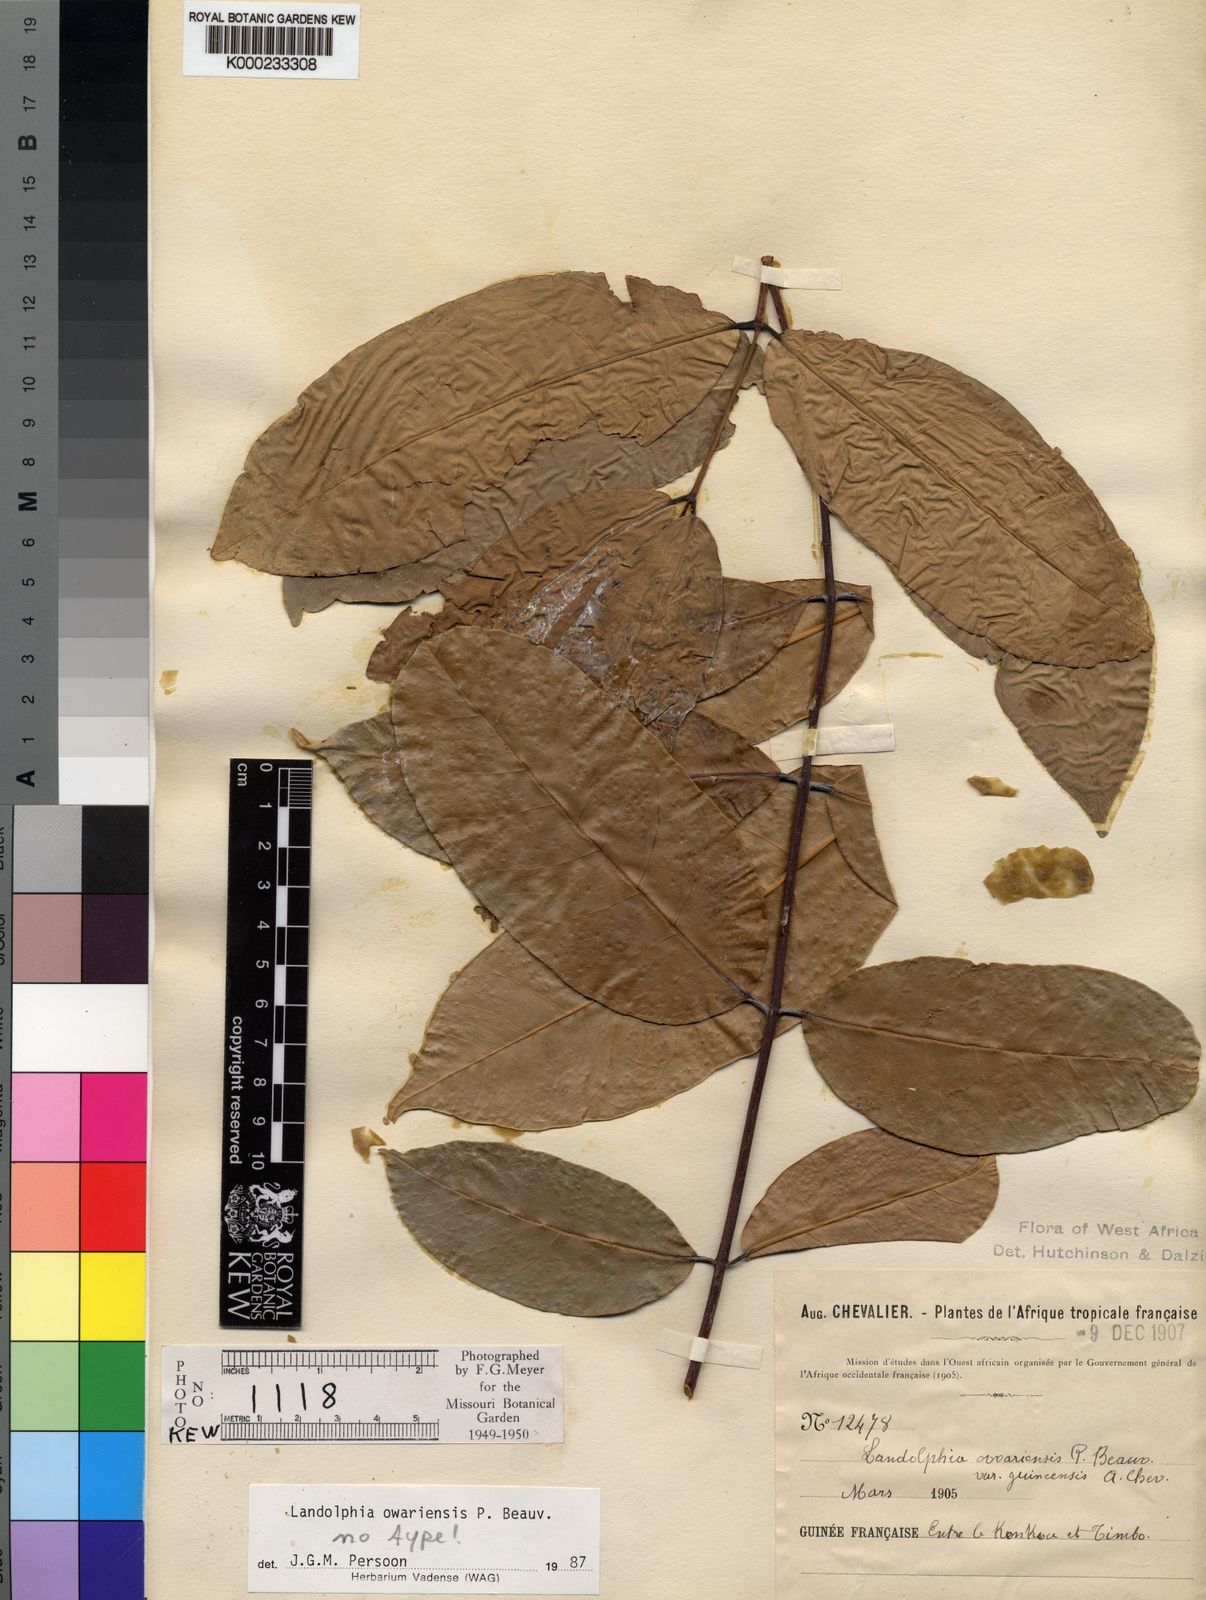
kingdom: Plantae
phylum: Tracheophyta
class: Magnoliopsida
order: Gentianales
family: Apocynaceae
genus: Landolphia
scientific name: Landolphia owariensis
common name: White-ball-rubber
